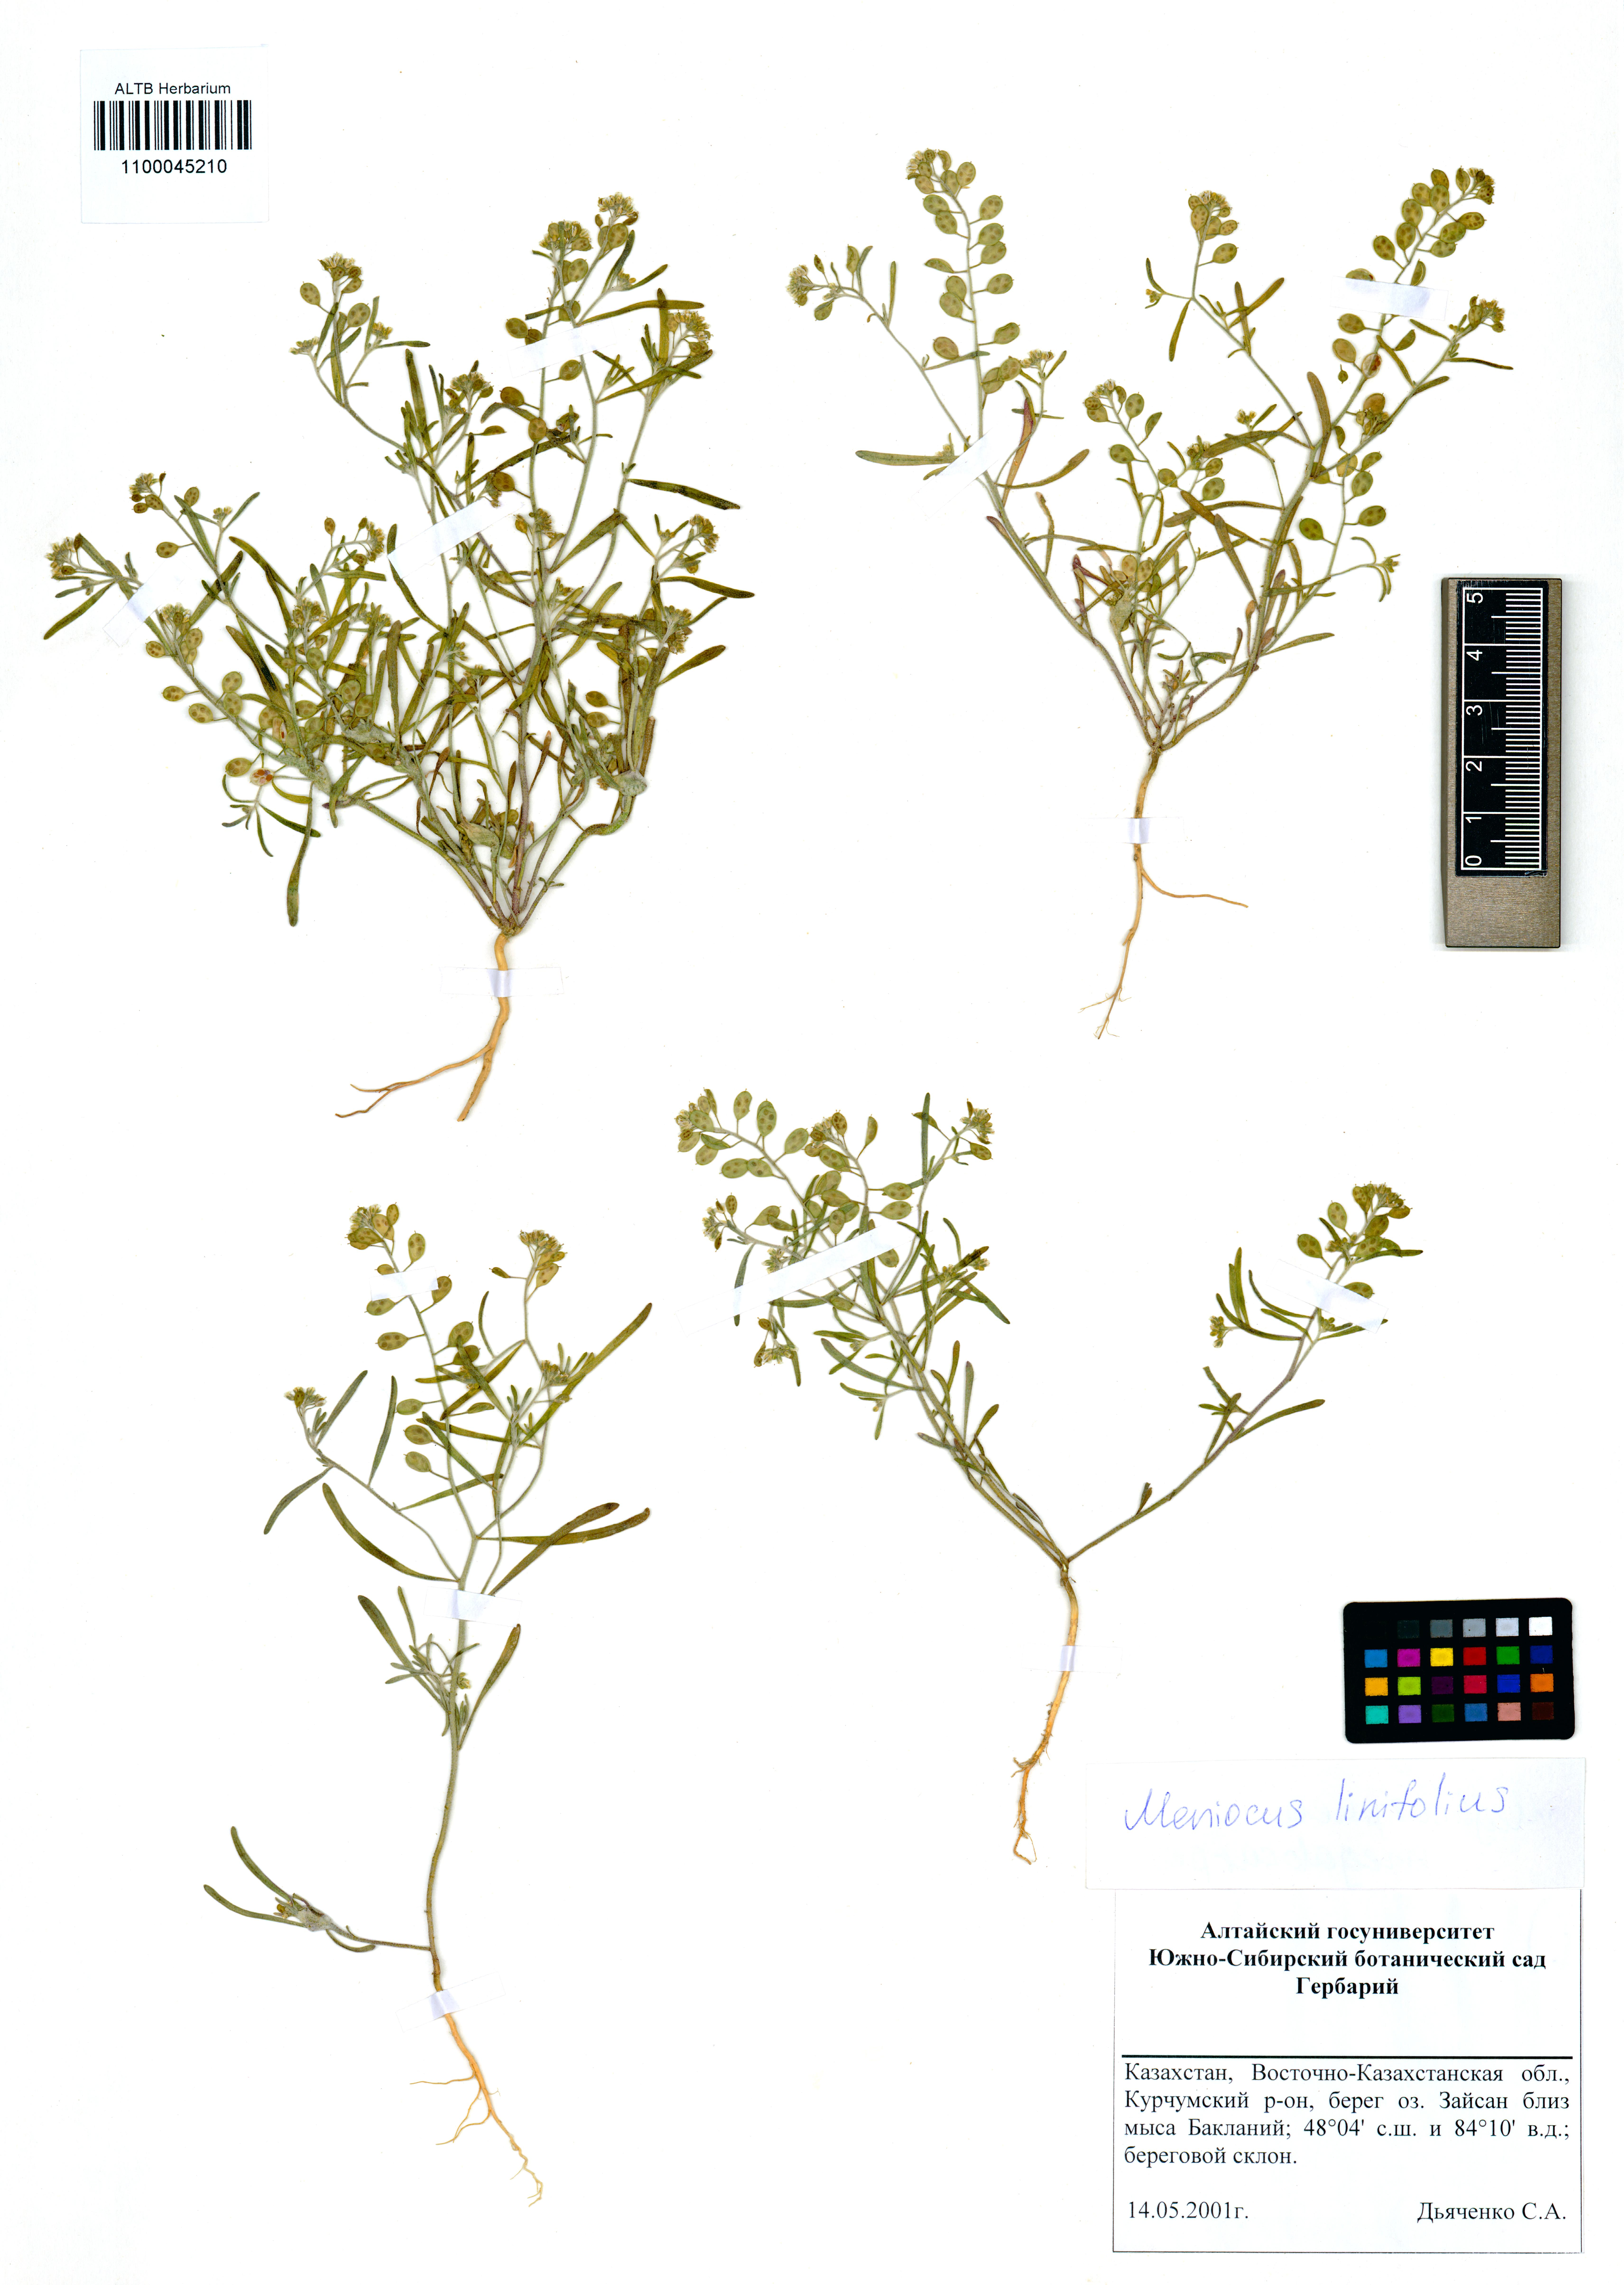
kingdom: Plantae
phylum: Tracheophyta
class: Magnoliopsida
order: Brassicales
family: Brassicaceae
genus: Meniocus
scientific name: Meniocus linifolius
